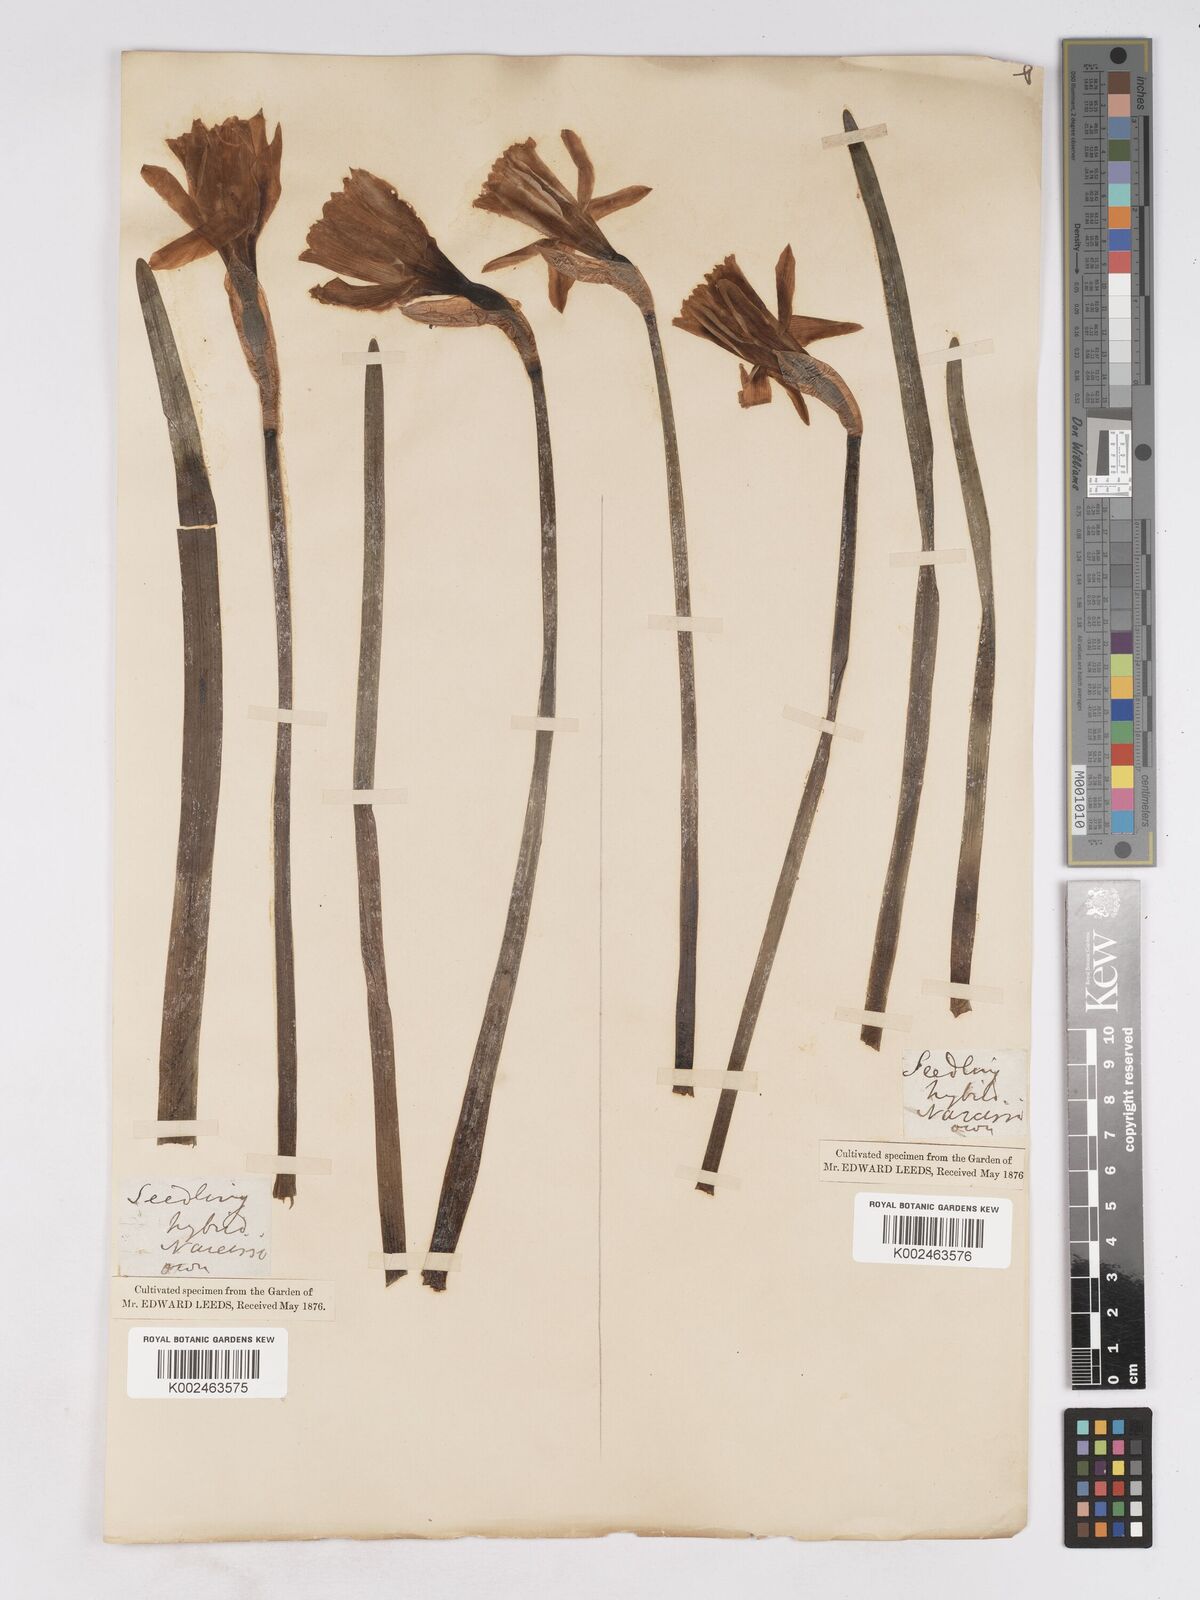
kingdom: Plantae
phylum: Tracheophyta
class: Liliopsida
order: Asparagales
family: Amaryllidaceae
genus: Narcissus
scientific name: Narcissus pseudonarcissus
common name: Daffodil
